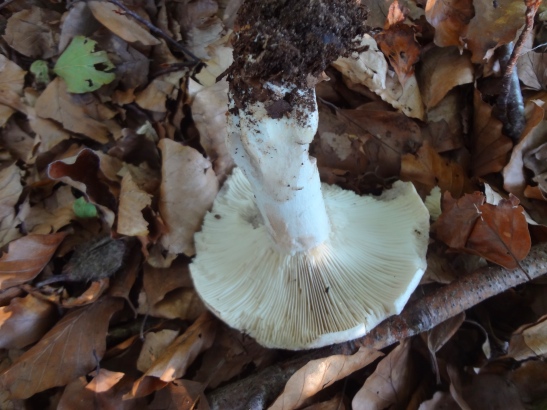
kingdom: Fungi
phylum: Basidiomycota
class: Agaricomycetes
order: Russulales
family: Russulaceae
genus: Russula
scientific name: Russula densifolia
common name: tætbladet skørhat
